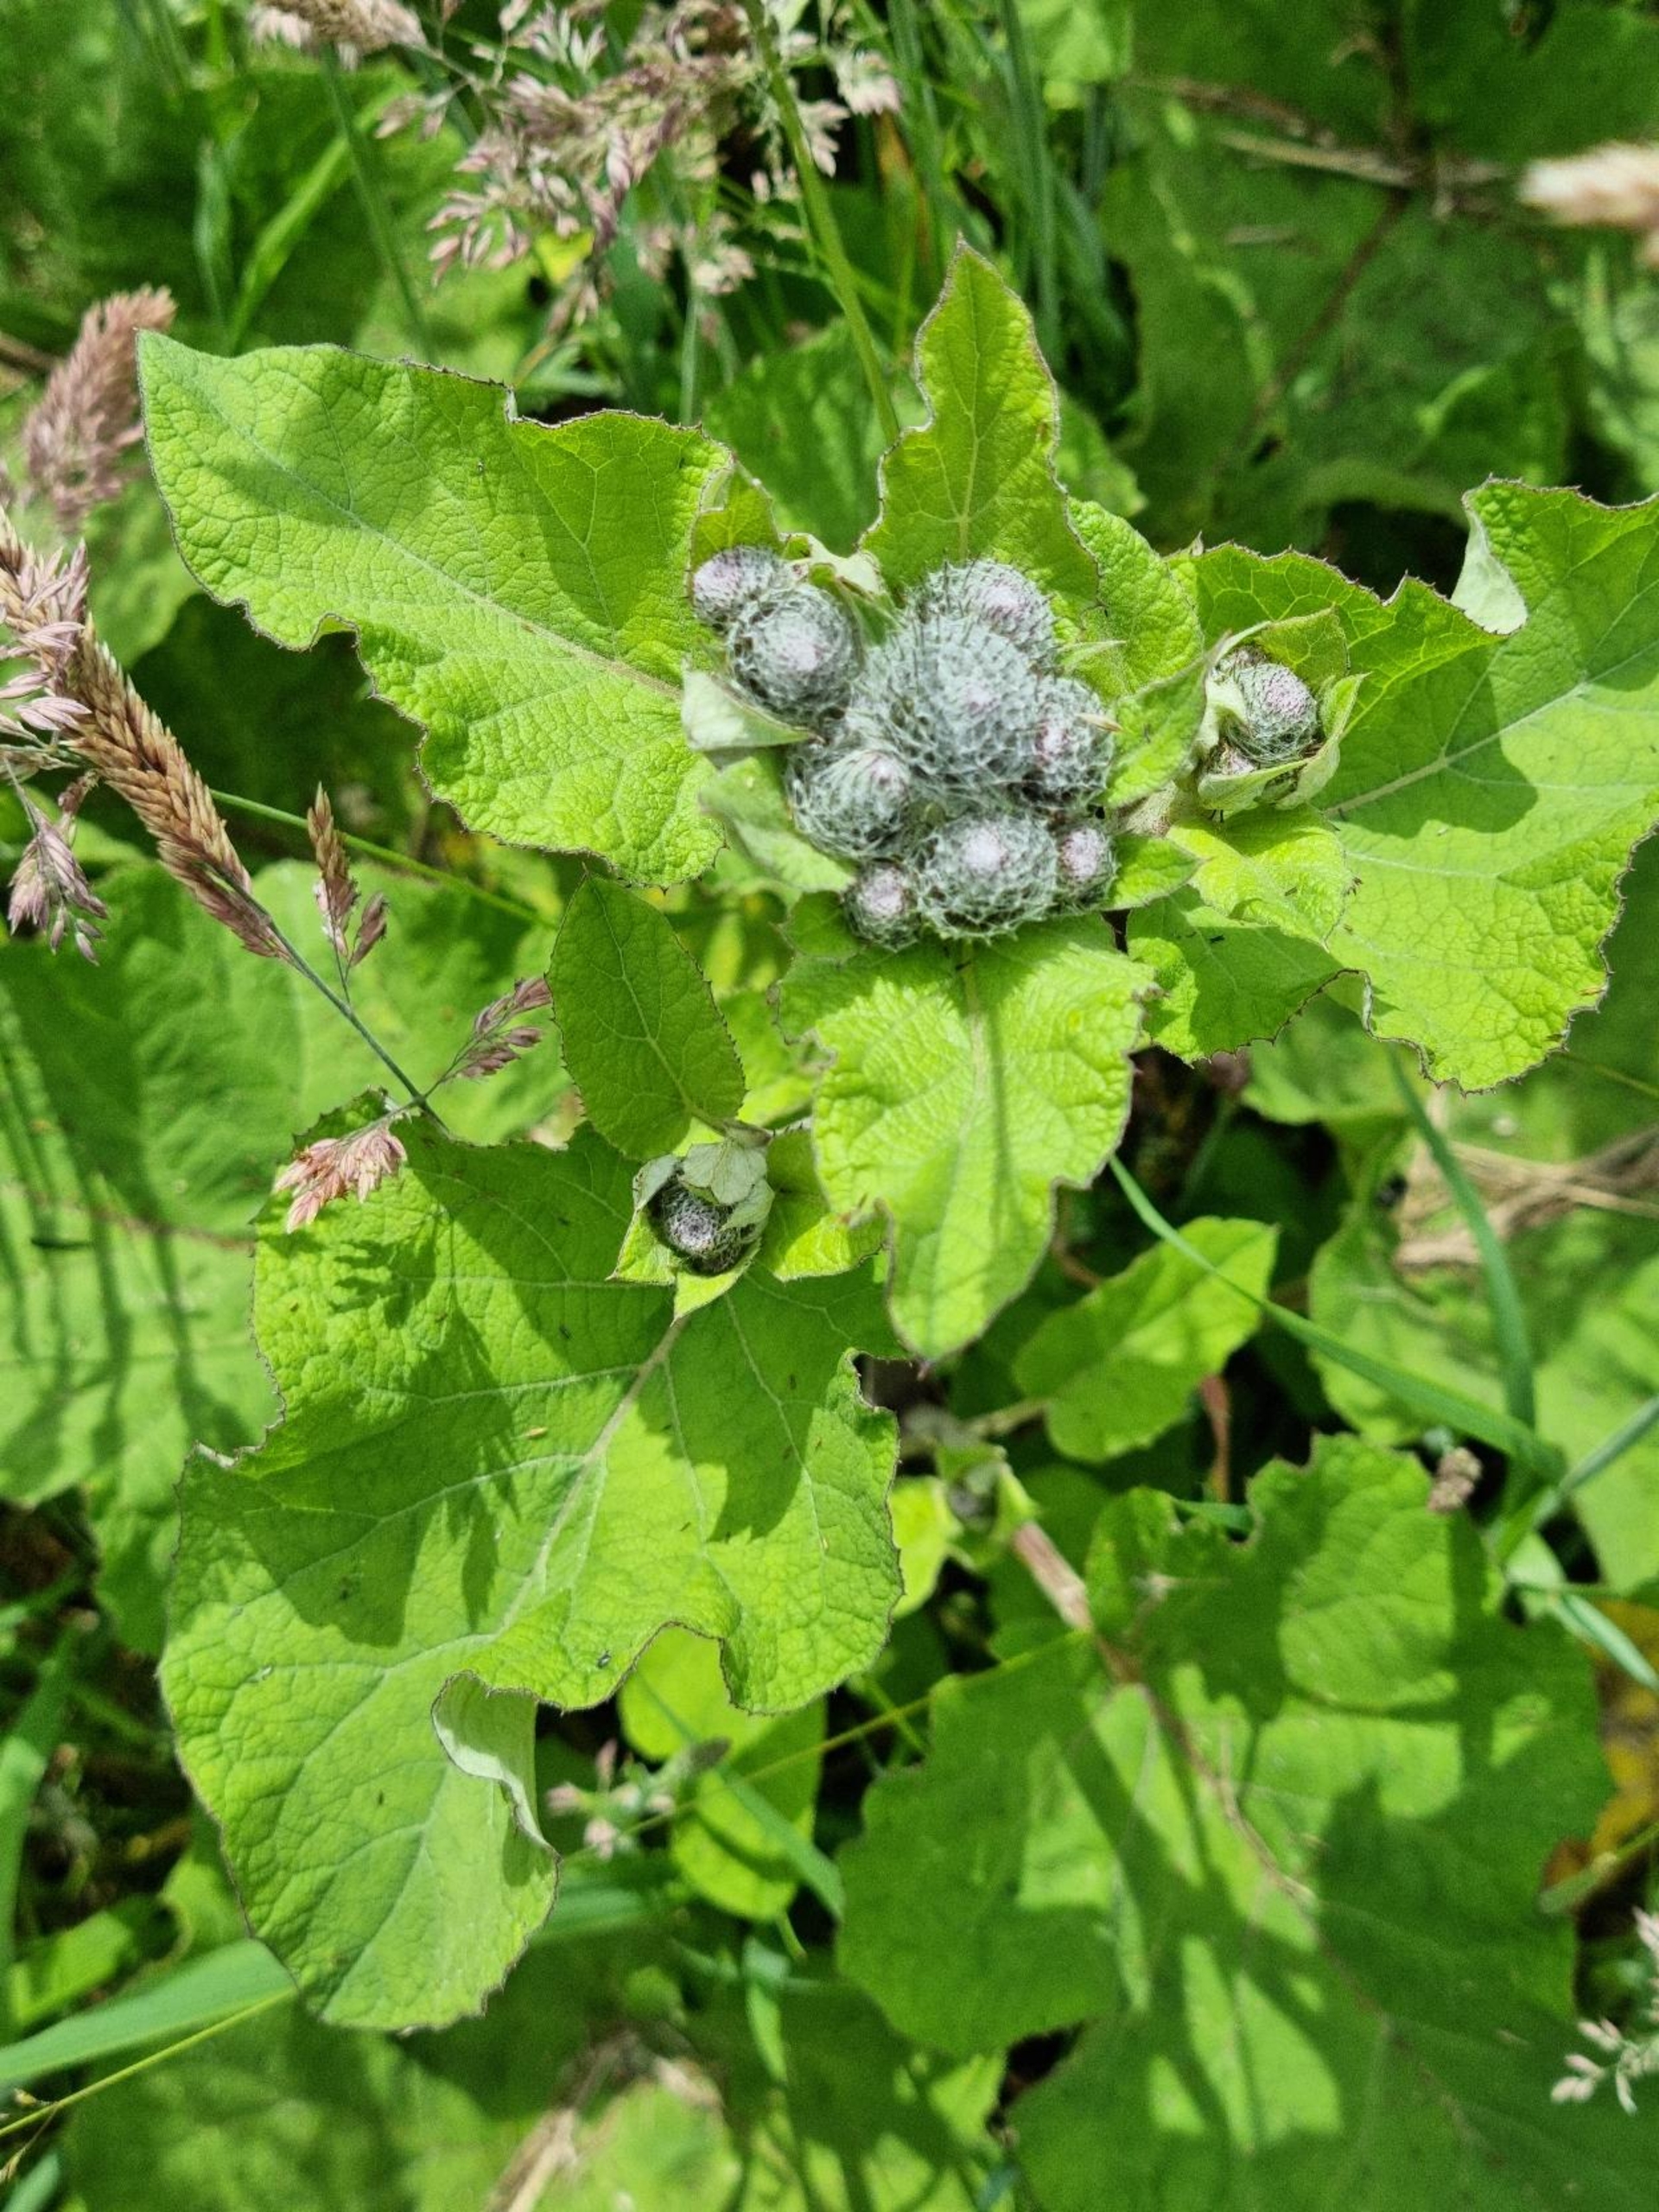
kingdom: Plantae
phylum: Tracheophyta
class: Magnoliopsida
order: Asterales
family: Asteraceae
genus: Arctium
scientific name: Arctium tomentosum
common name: Filtet burre
